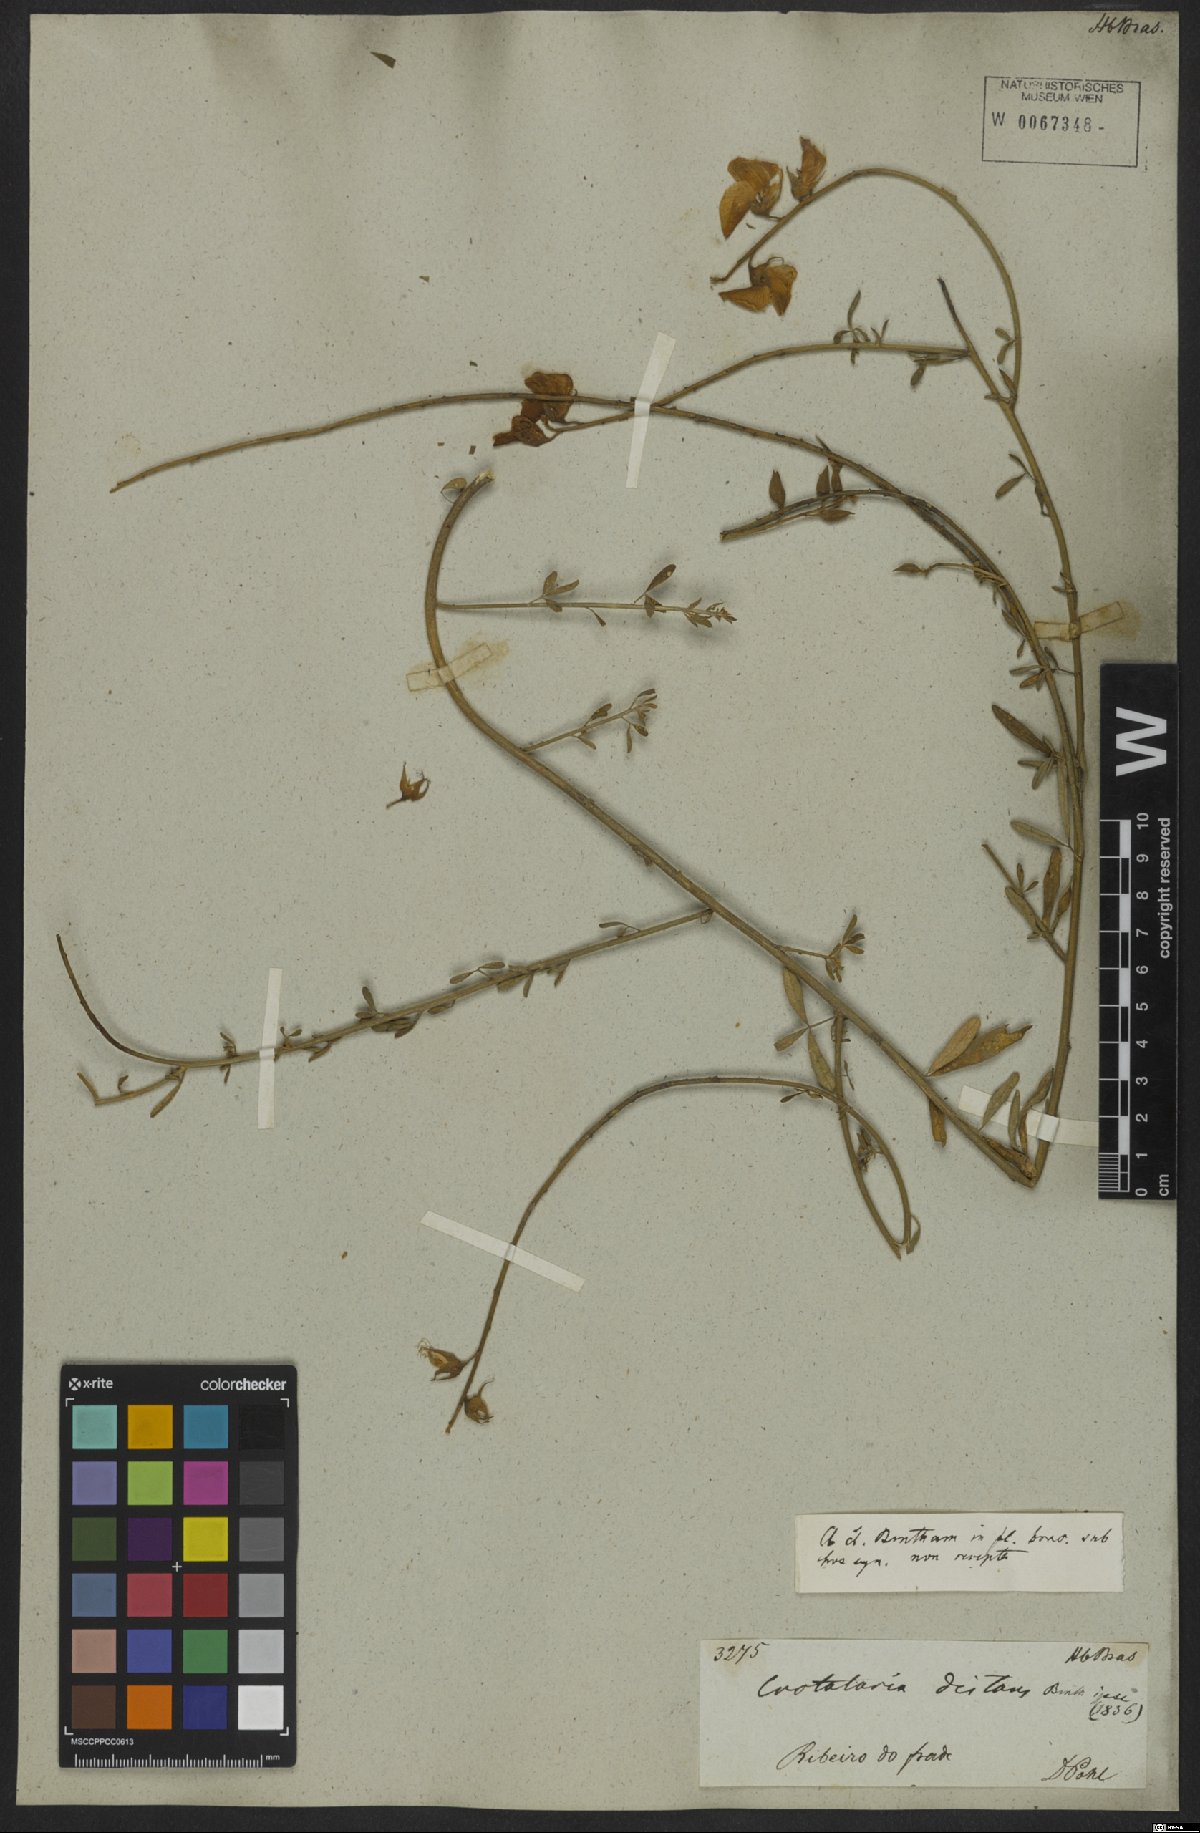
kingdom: Plantae
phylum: Tracheophyta
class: Magnoliopsida
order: Fabales
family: Fabaceae
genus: Crotalaria
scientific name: Crotalaria distans
